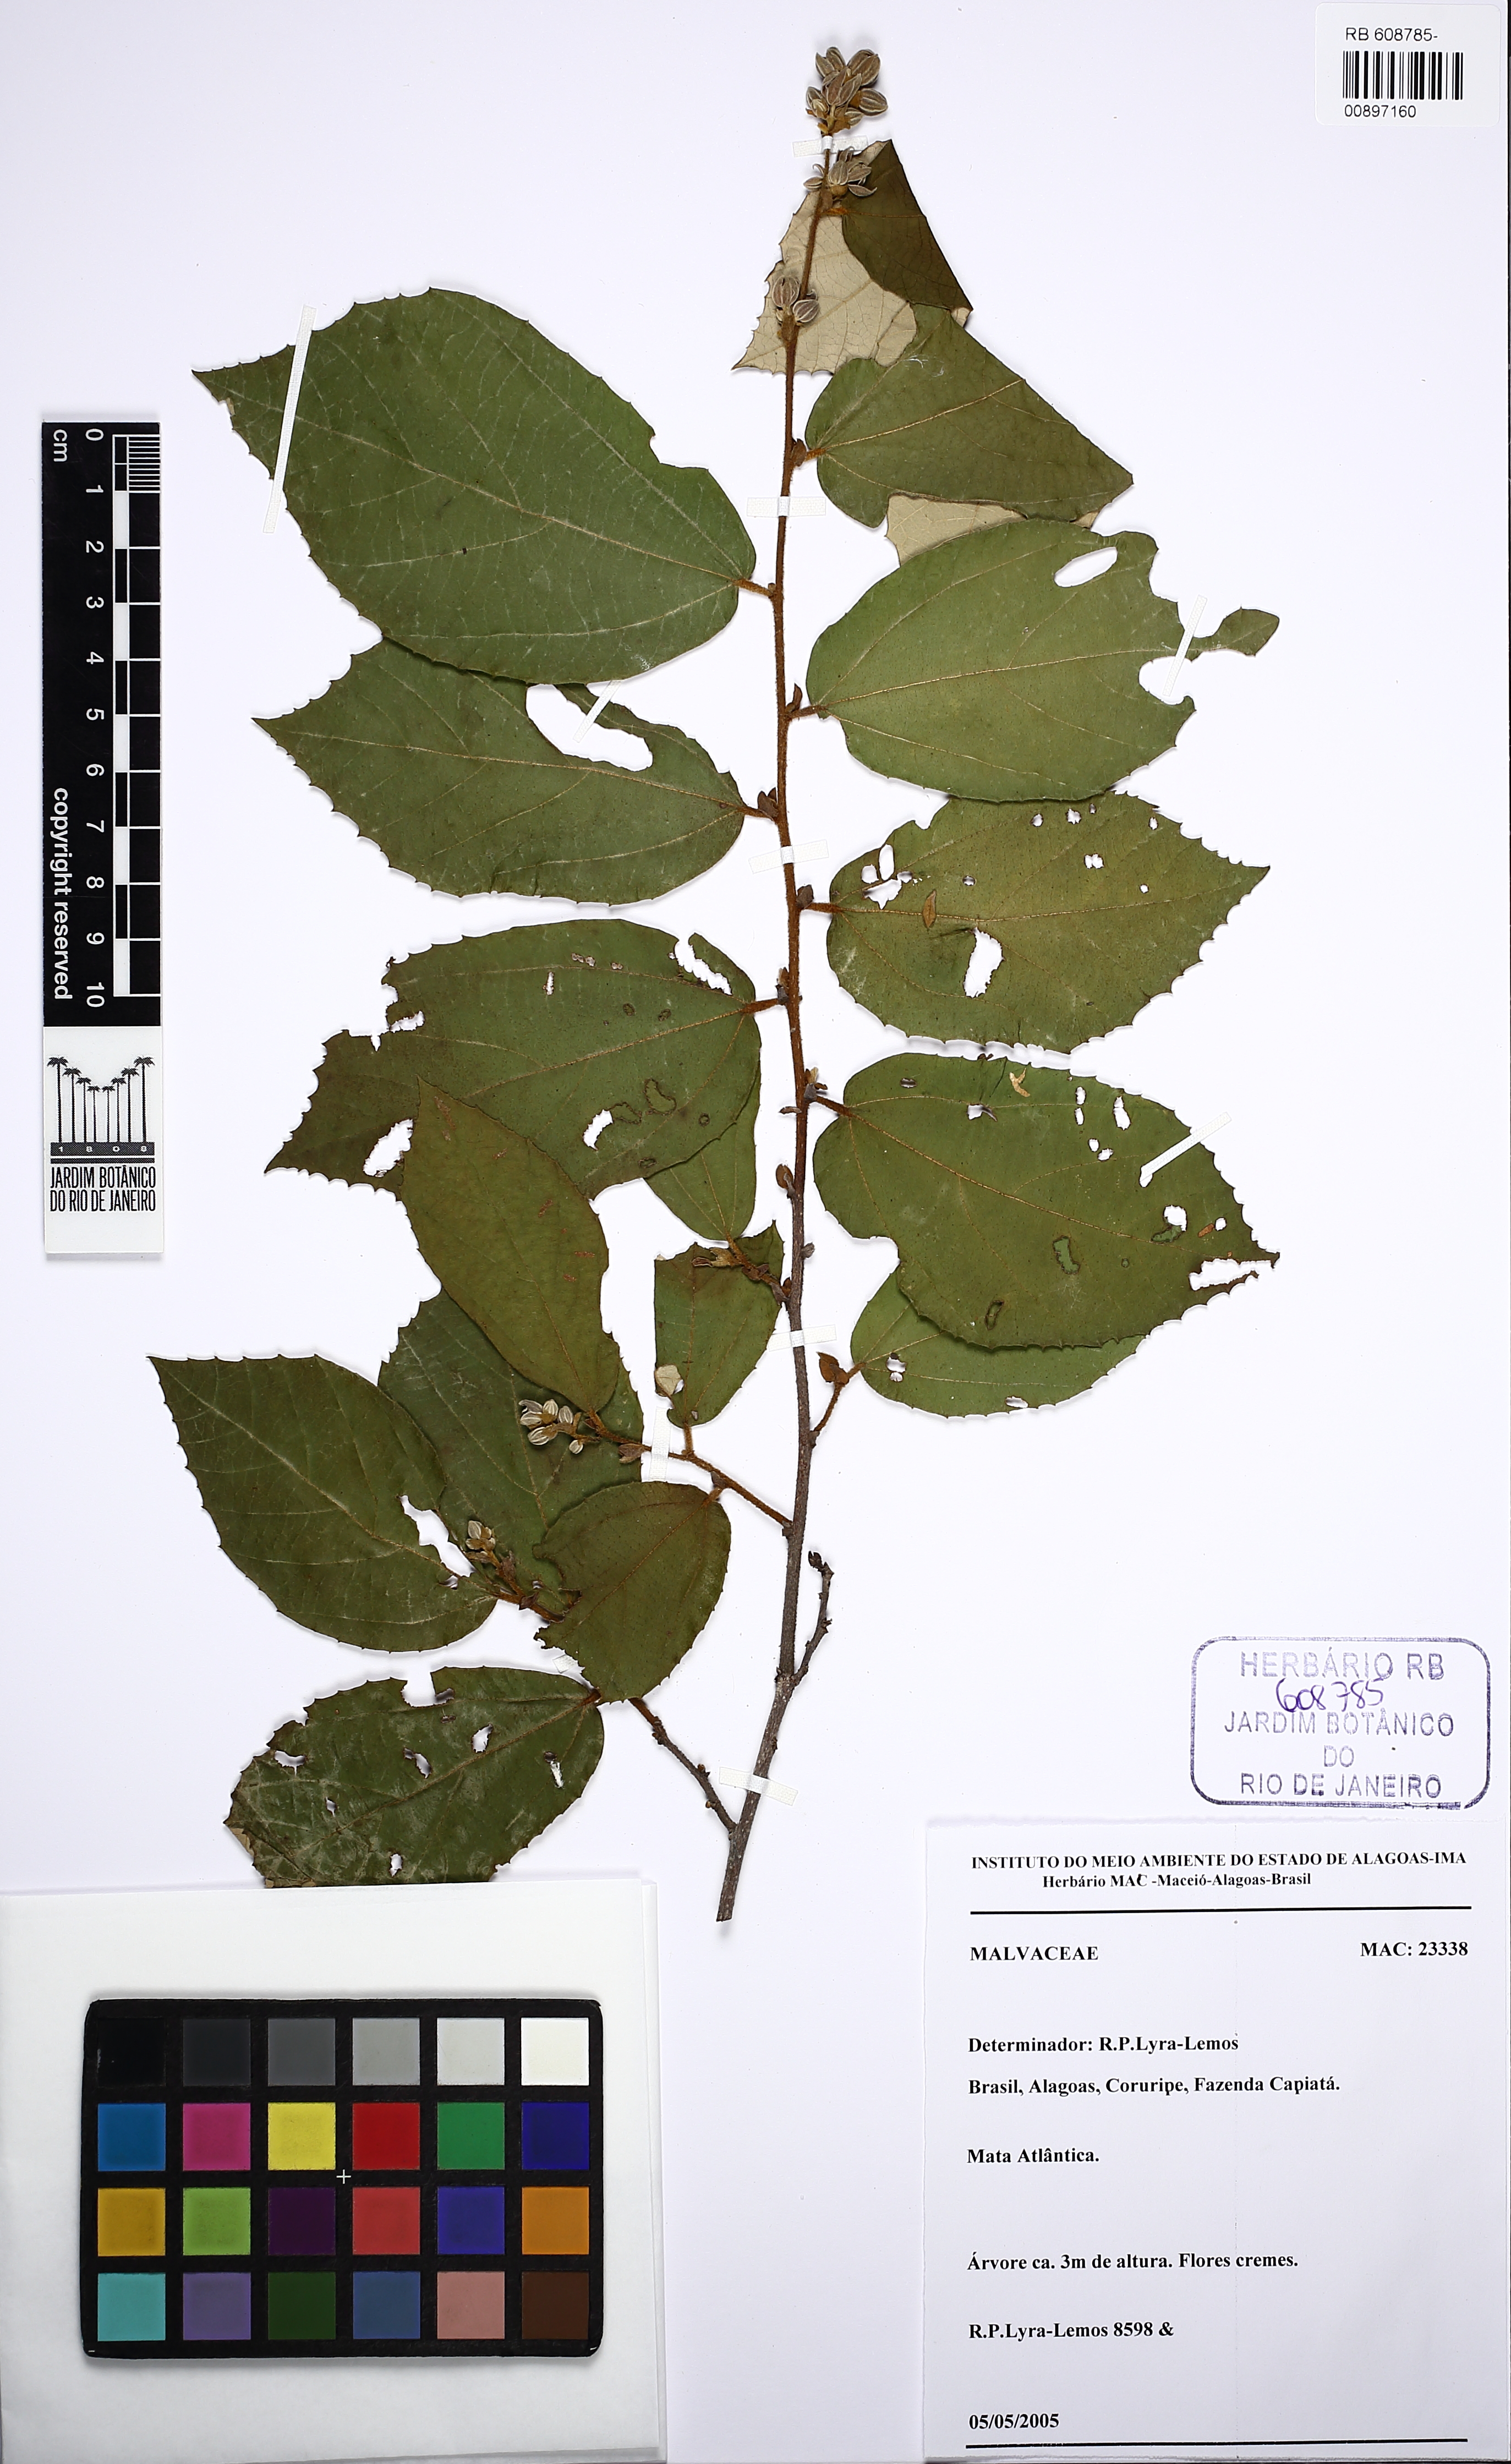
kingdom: Plantae
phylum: Tracheophyta
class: Magnoliopsida
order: Malvales
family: Malvaceae
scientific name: Malvaceae
